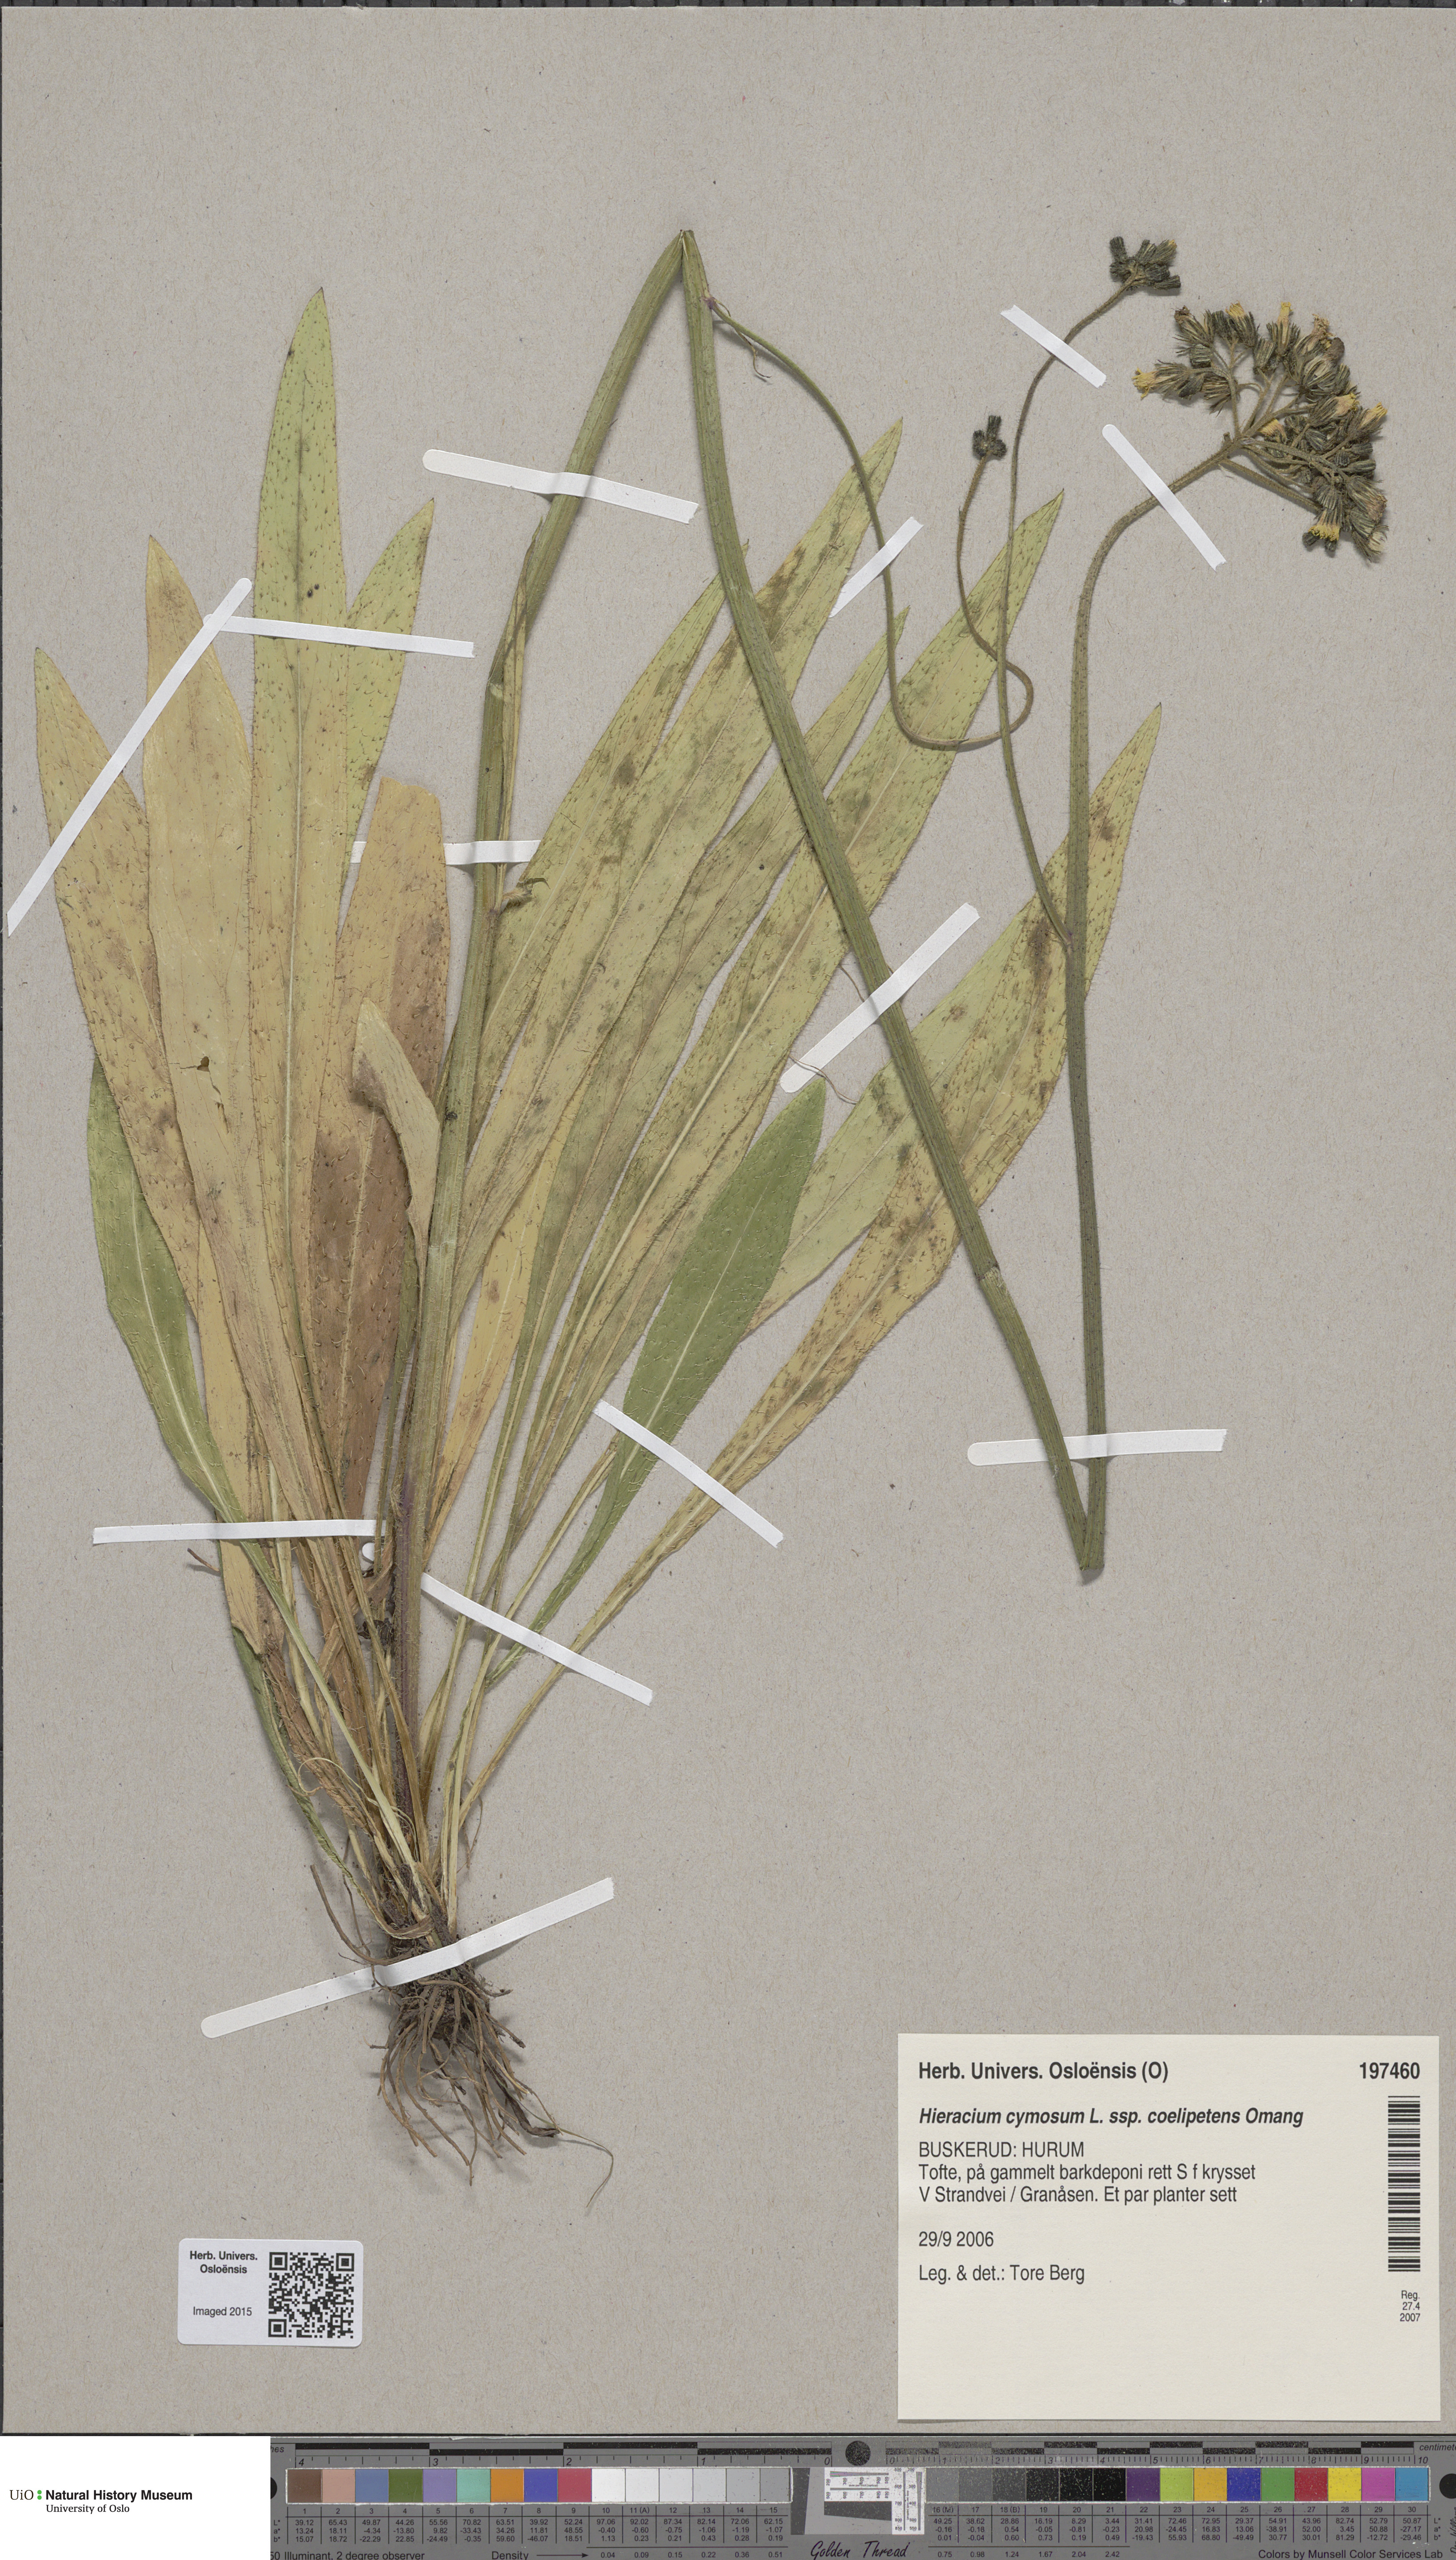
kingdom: Plantae
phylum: Tracheophyta
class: Magnoliopsida
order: Asterales
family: Asteraceae
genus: Pilosella
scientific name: Pilosella cymosa
